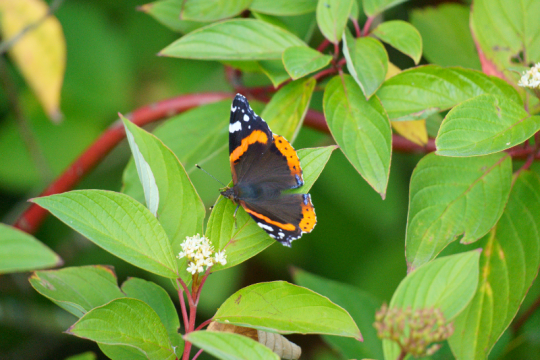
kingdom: Animalia
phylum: Arthropoda
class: Insecta
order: Lepidoptera
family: Nymphalidae
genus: Vanessa
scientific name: Vanessa atalanta
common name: Red Admiral
